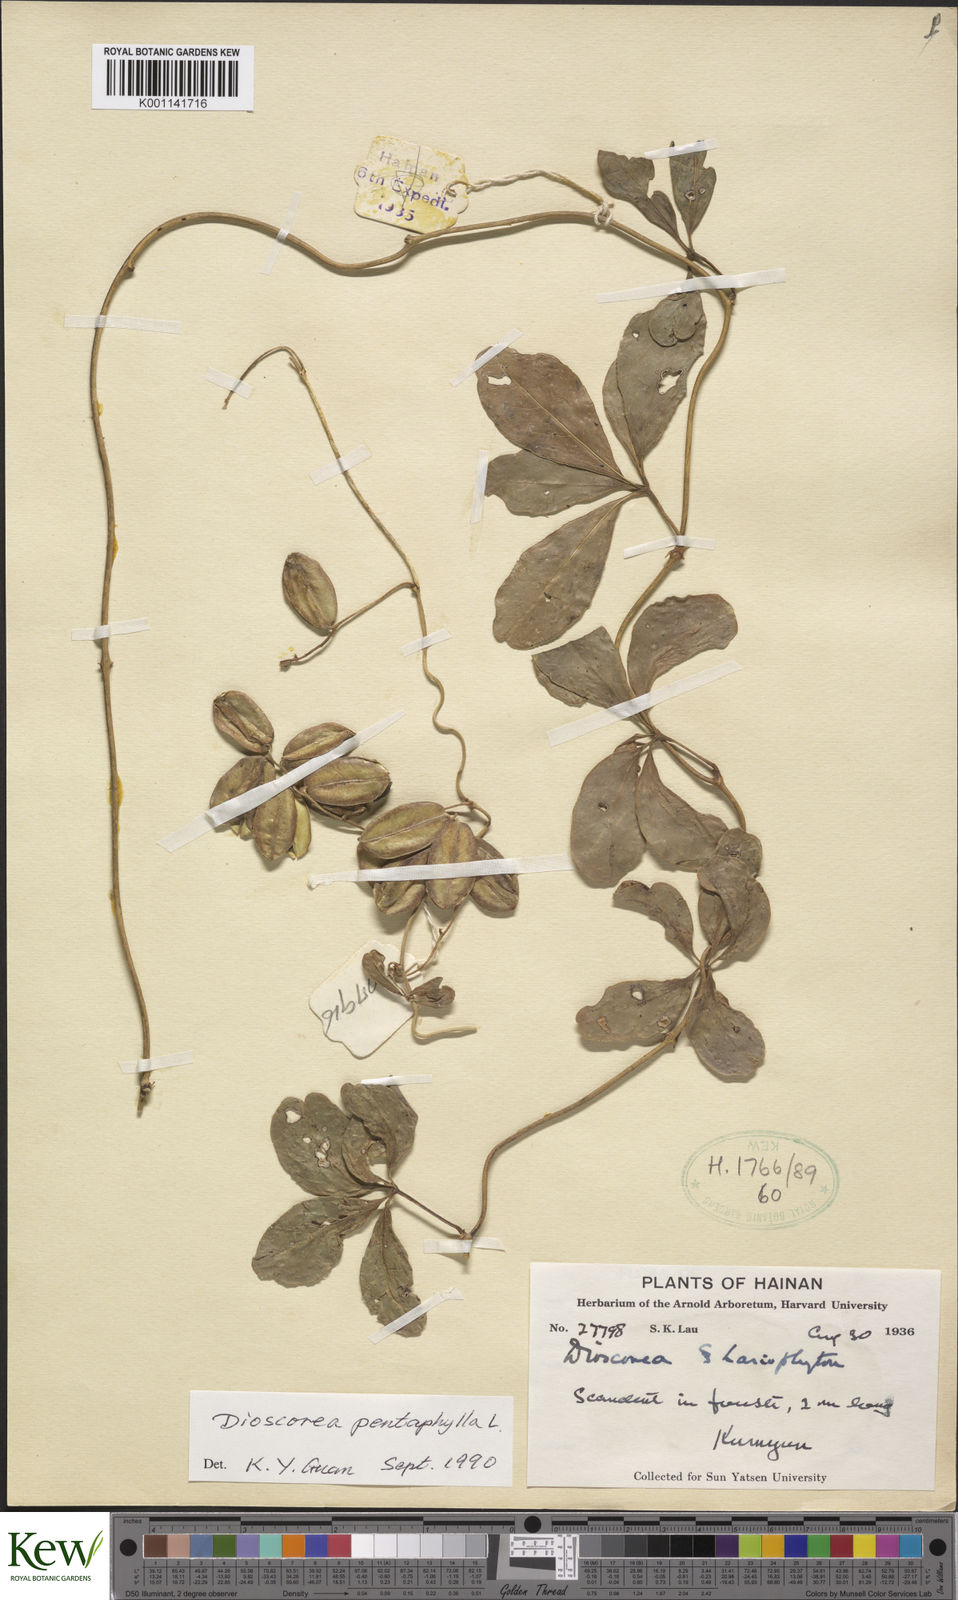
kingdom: Plantae
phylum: Tracheophyta
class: Liliopsida
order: Dioscoreales
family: Dioscoreaceae
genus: Dioscorea
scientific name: Dioscorea pentaphylla
